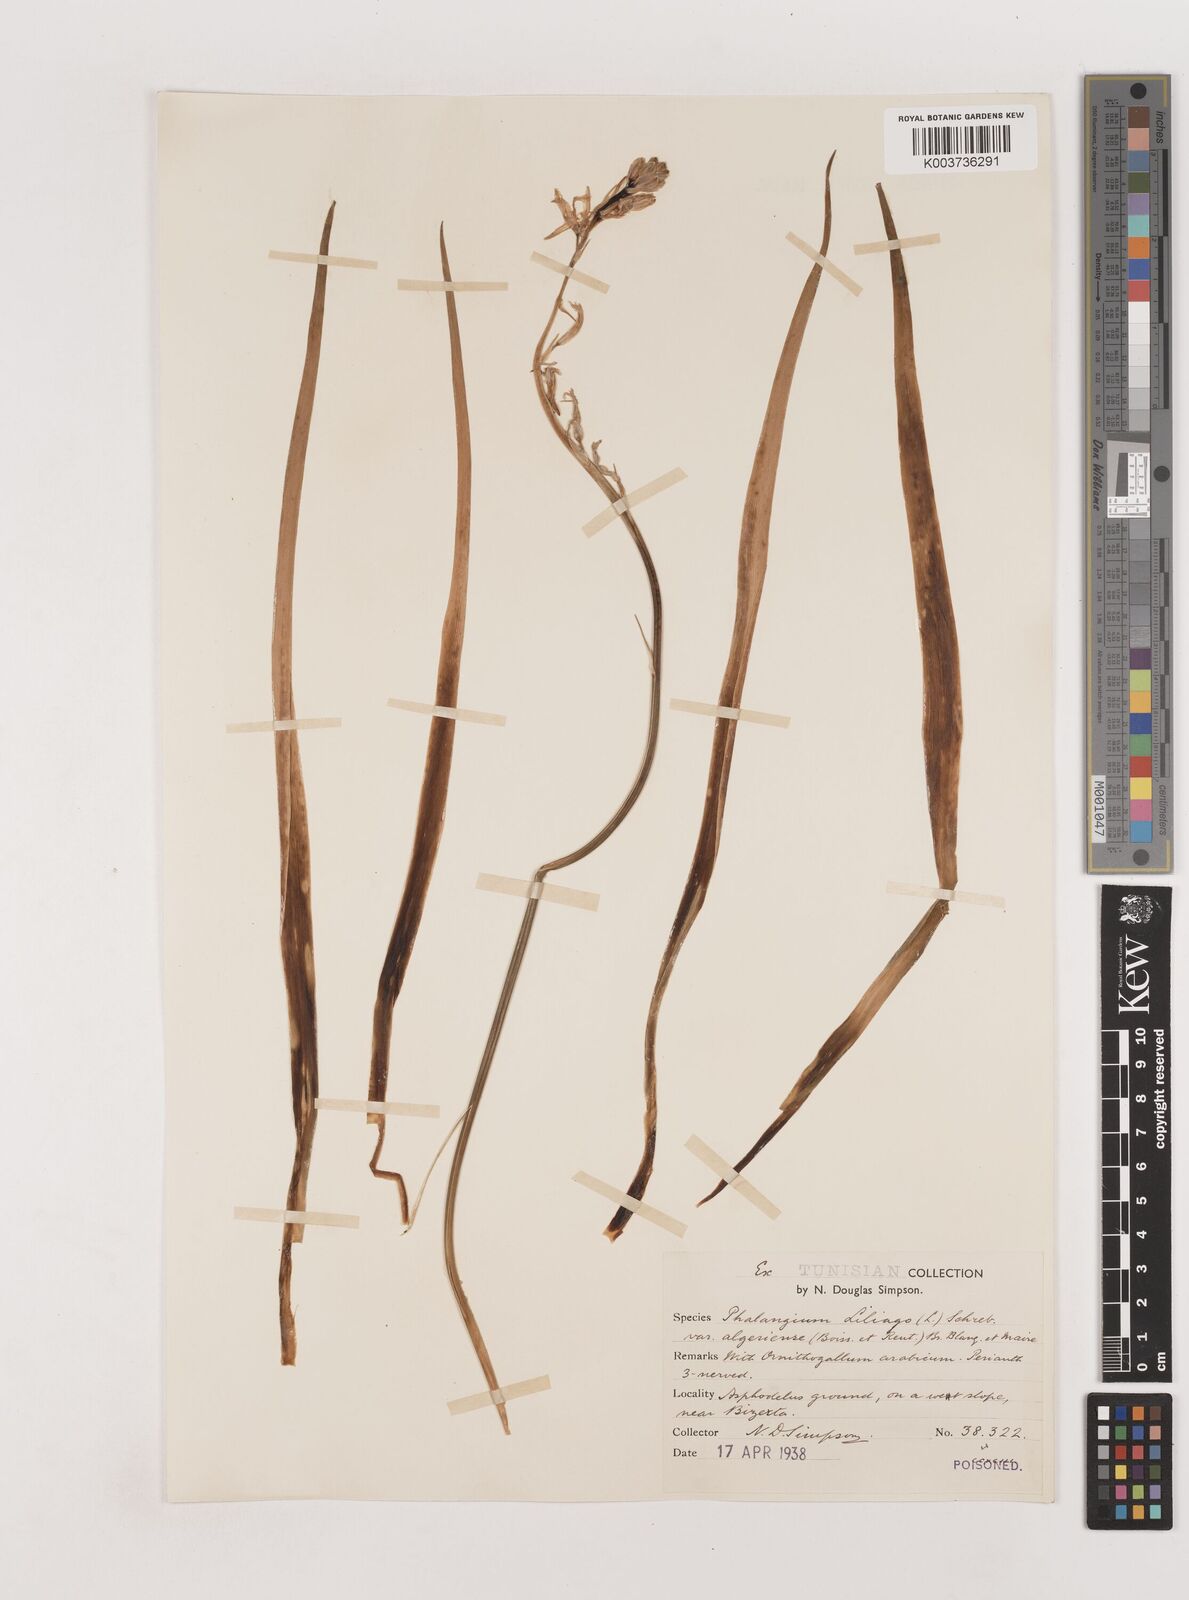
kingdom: Plantae
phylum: Tracheophyta
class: Liliopsida
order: Asparagales
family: Asparagaceae
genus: Anthericum
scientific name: Anthericum liliago
